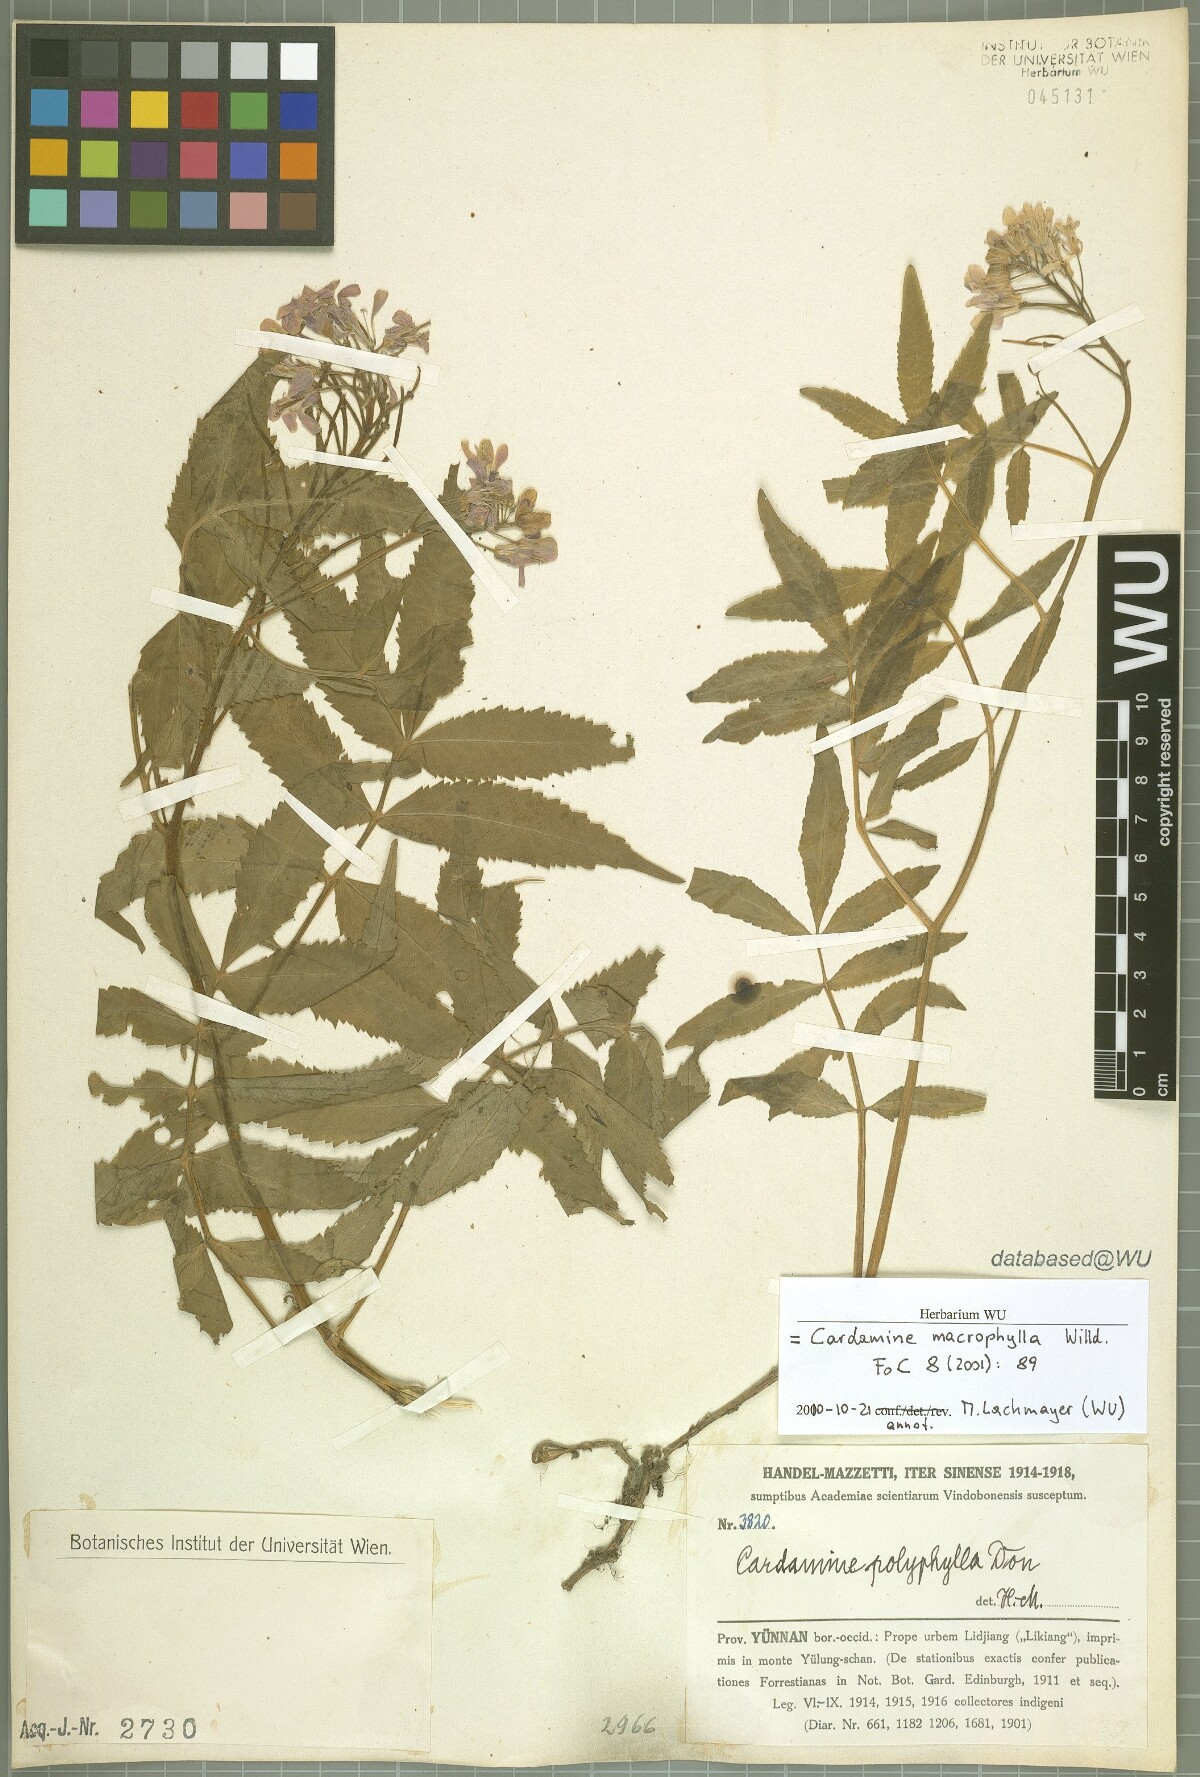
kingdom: Plantae
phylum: Tracheophyta
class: Magnoliopsida
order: Brassicales
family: Brassicaceae
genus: Cardamine
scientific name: Cardamine macrophylla
